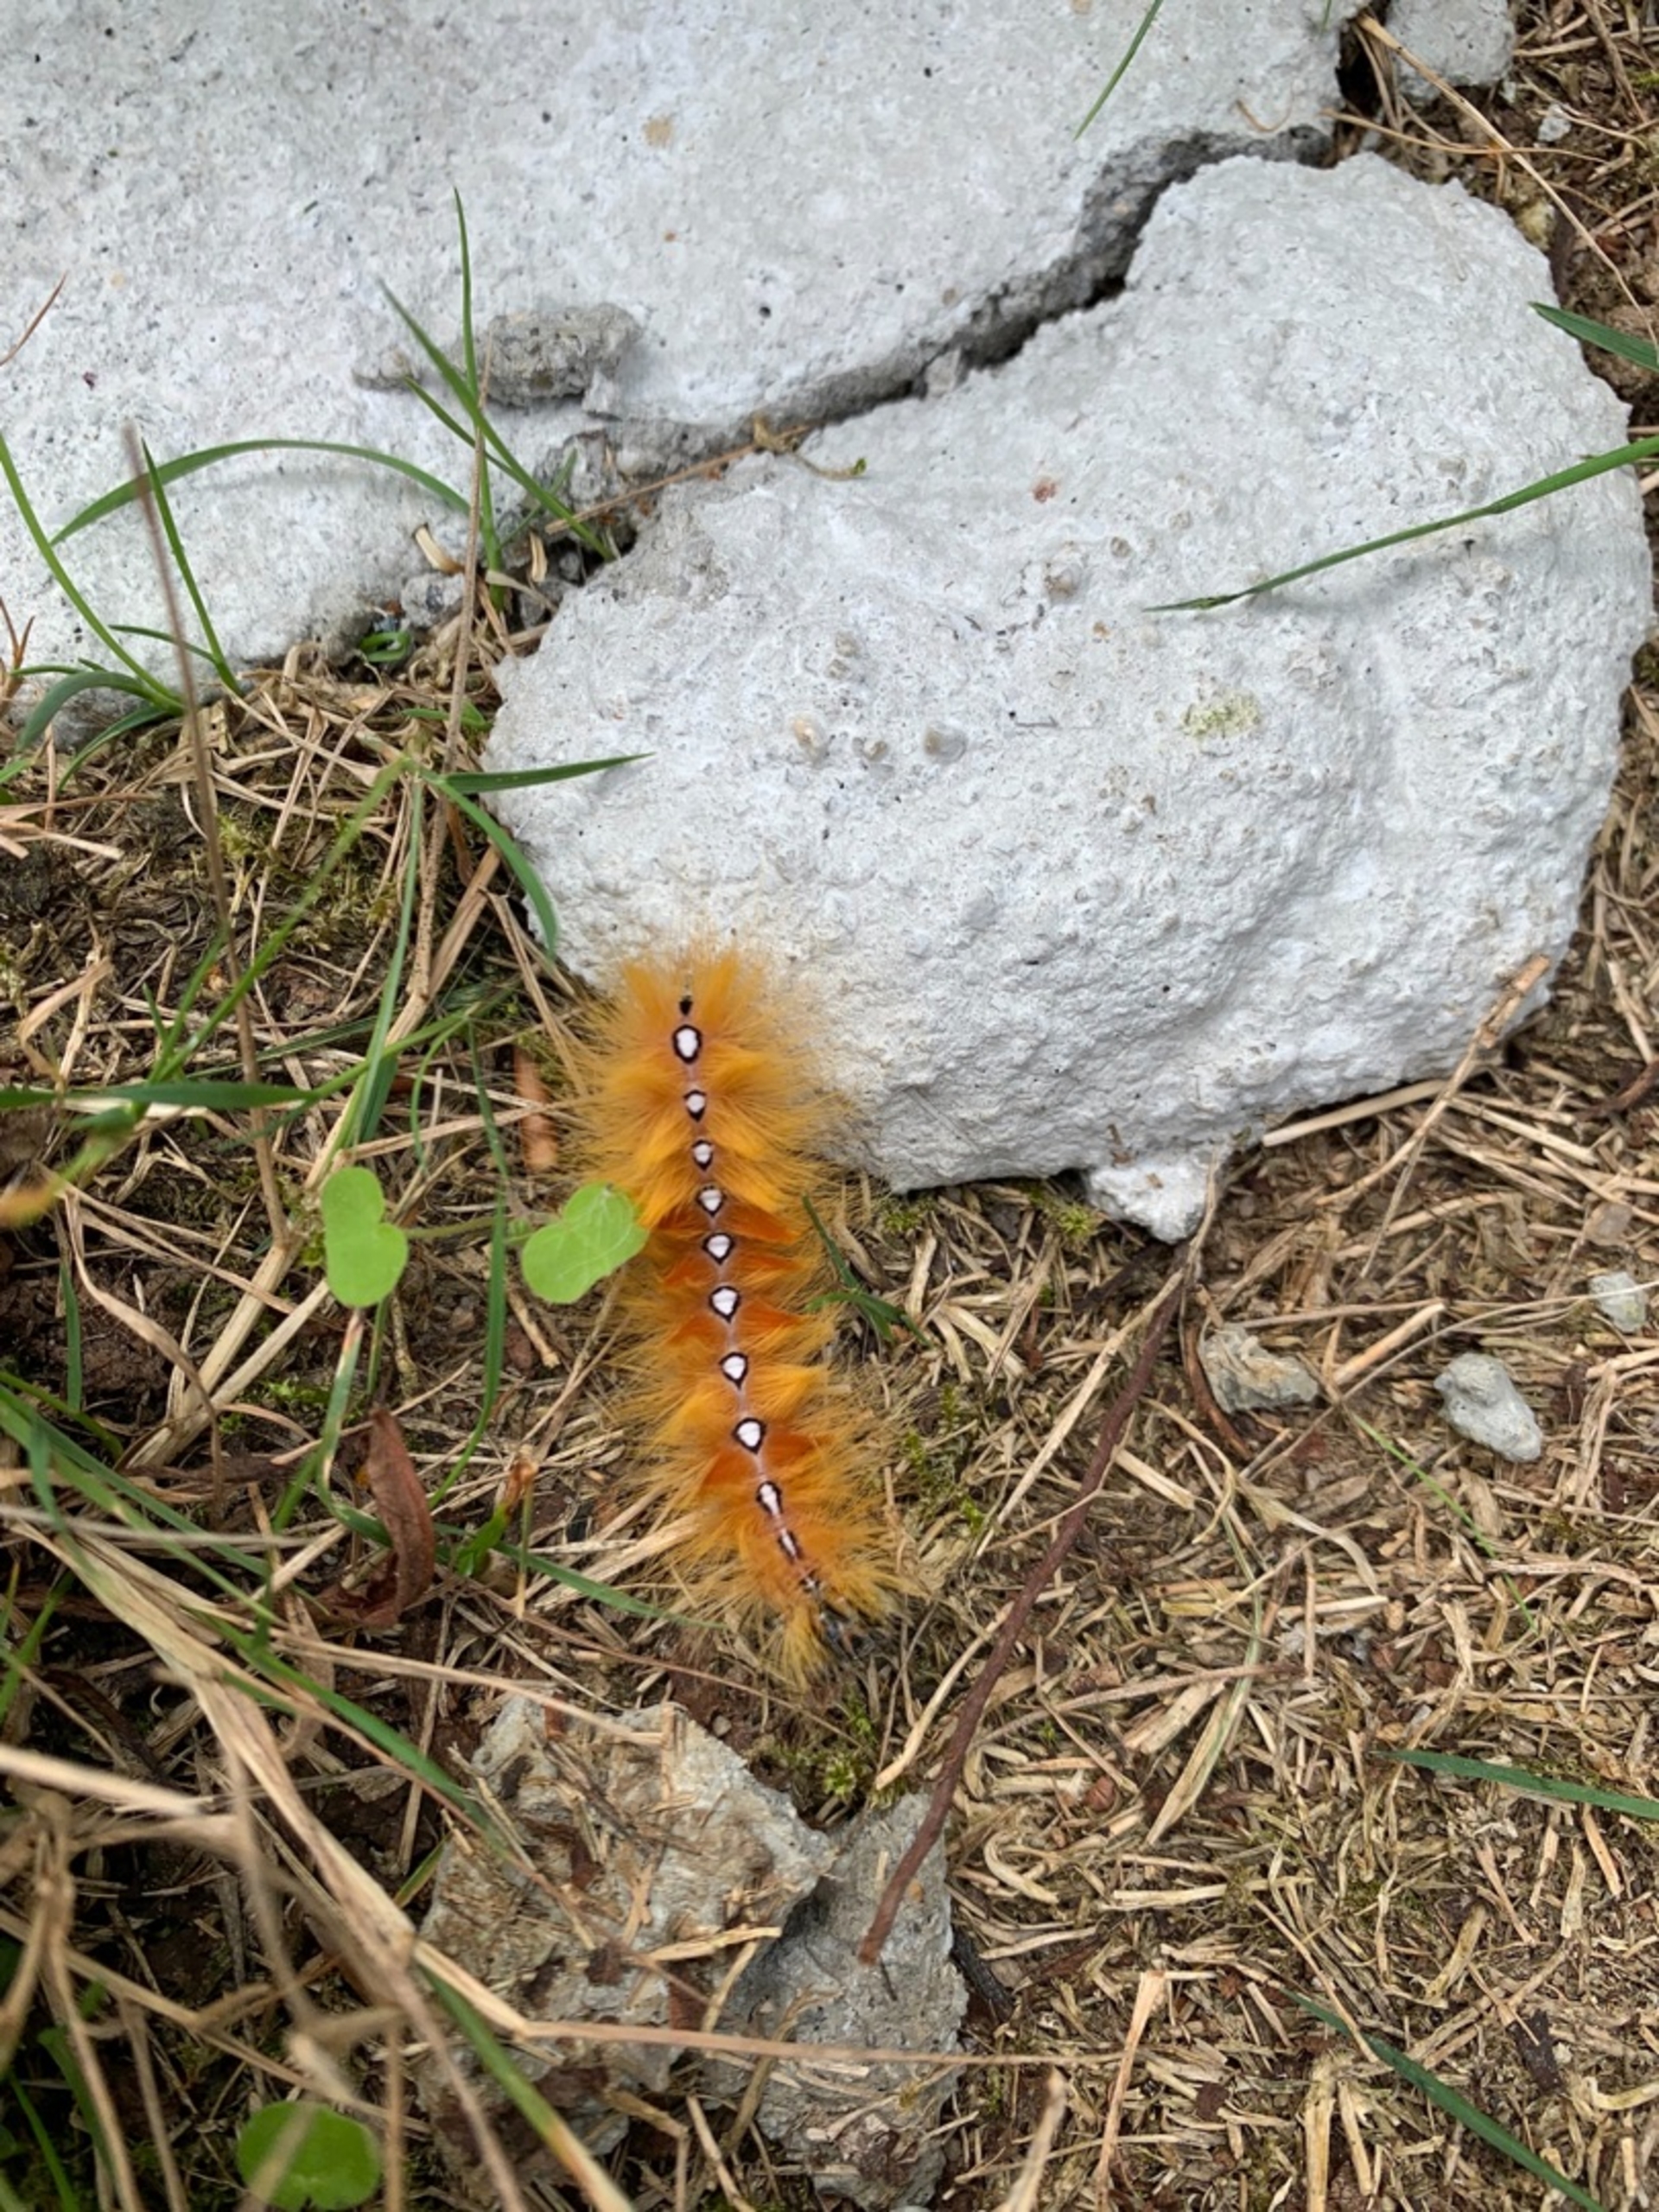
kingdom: Animalia
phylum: Arthropoda
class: Insecta
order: Lepidoptera
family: Noctuidae
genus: Acronicta
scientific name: Acronicta aceris
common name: Ahornugle
